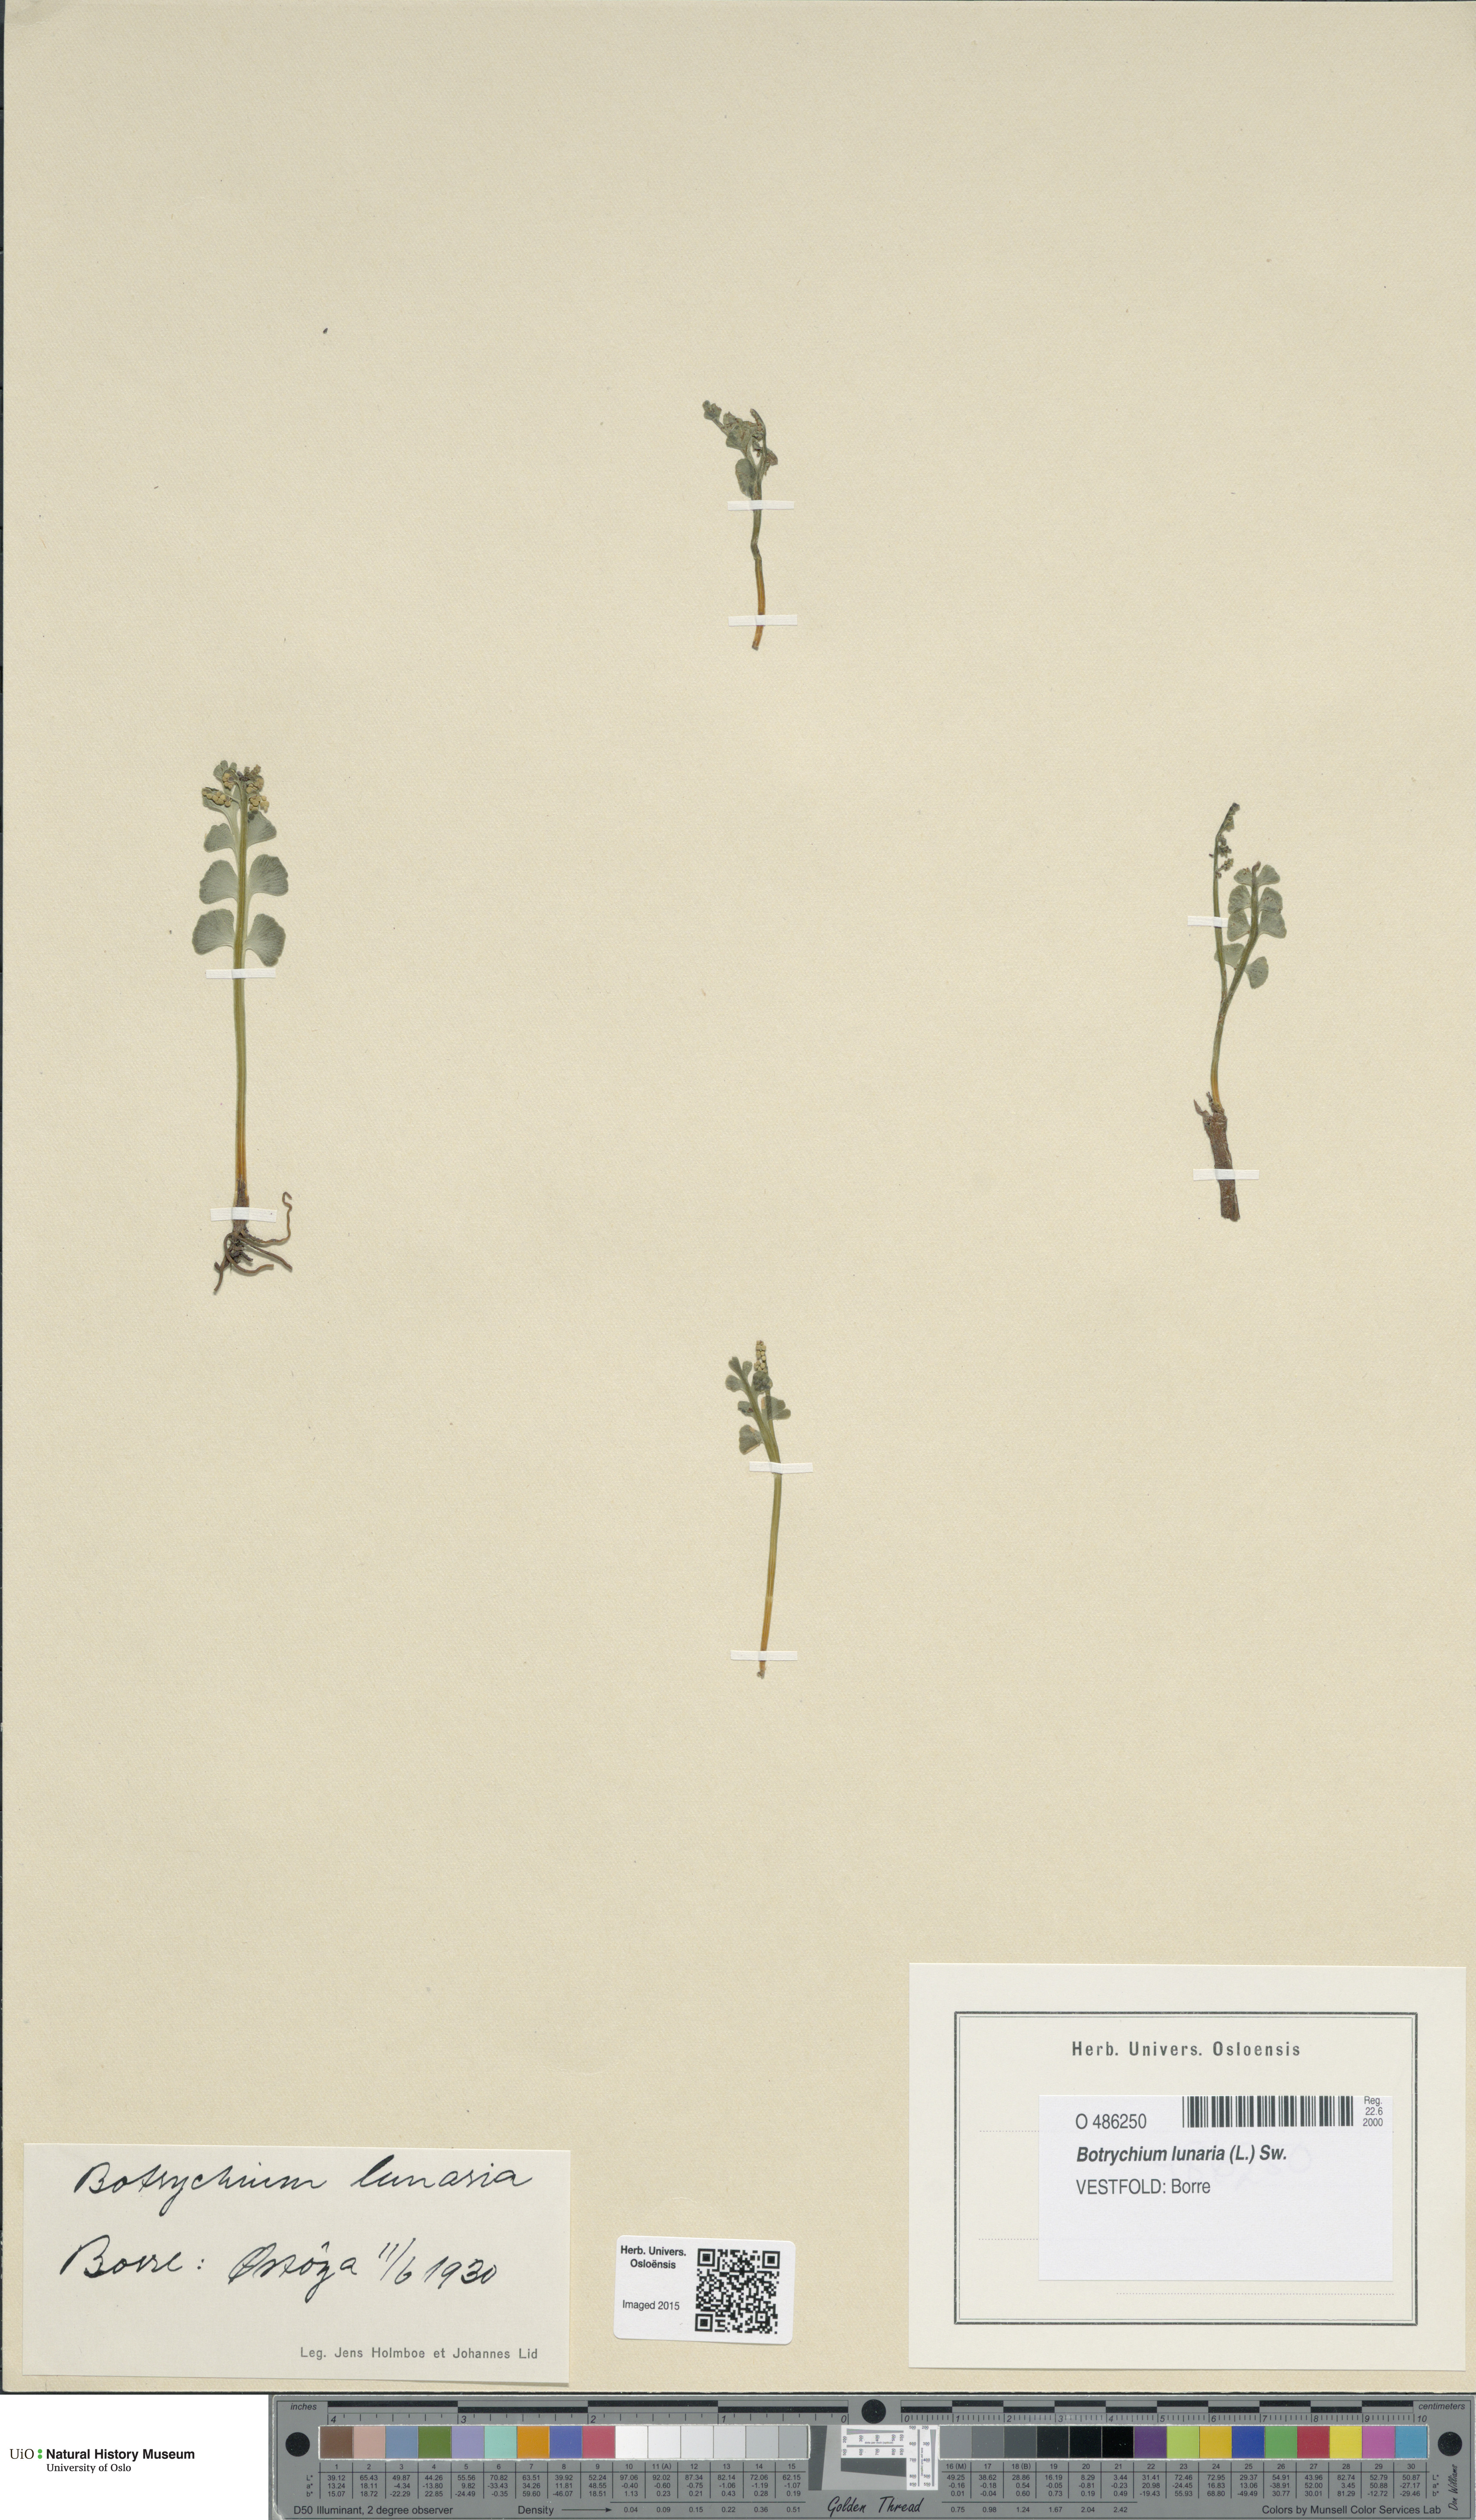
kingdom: Plantae
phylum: Tracheophyta
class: Polypodiopsida
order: Ophioglossales
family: Ophioglossaceae
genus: Botrychium
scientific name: Botrychium lunaria
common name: Moonwort
